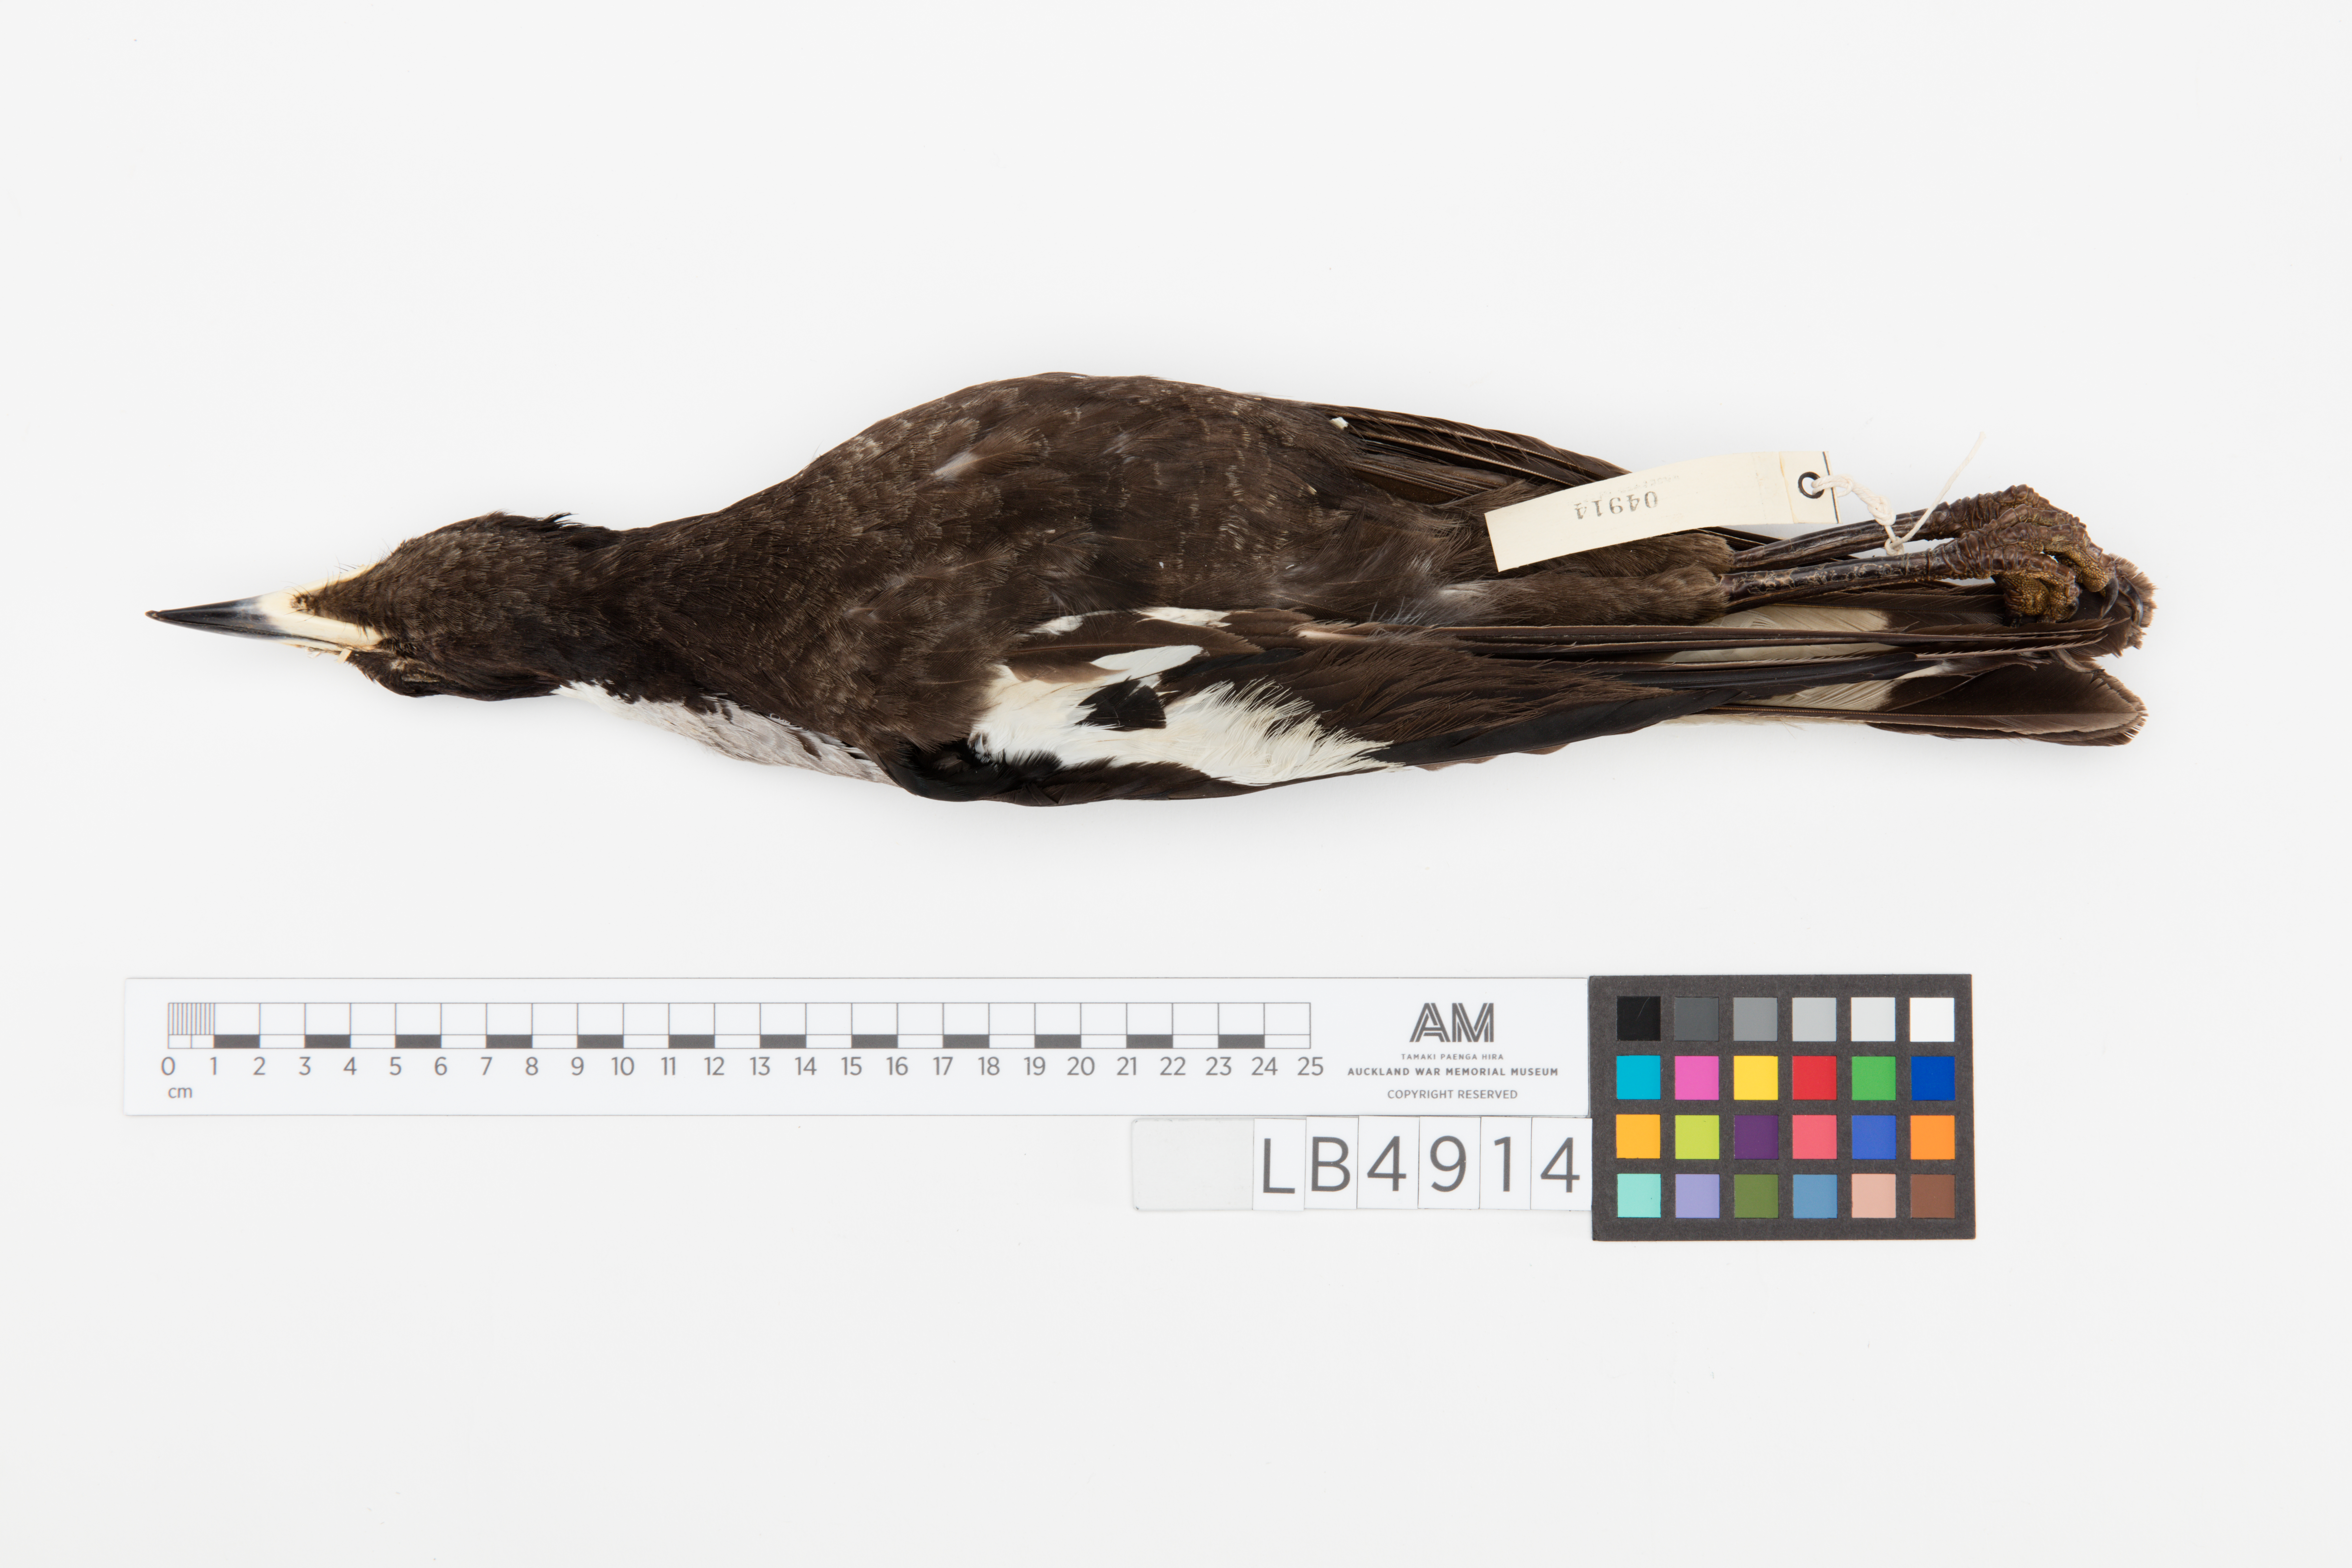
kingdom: Animalia
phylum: Chordata
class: Aves
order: Passeriformes
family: Cracticidae
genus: Gymnorhina
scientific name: Gymnorhina tibicen
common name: Australian magpie
